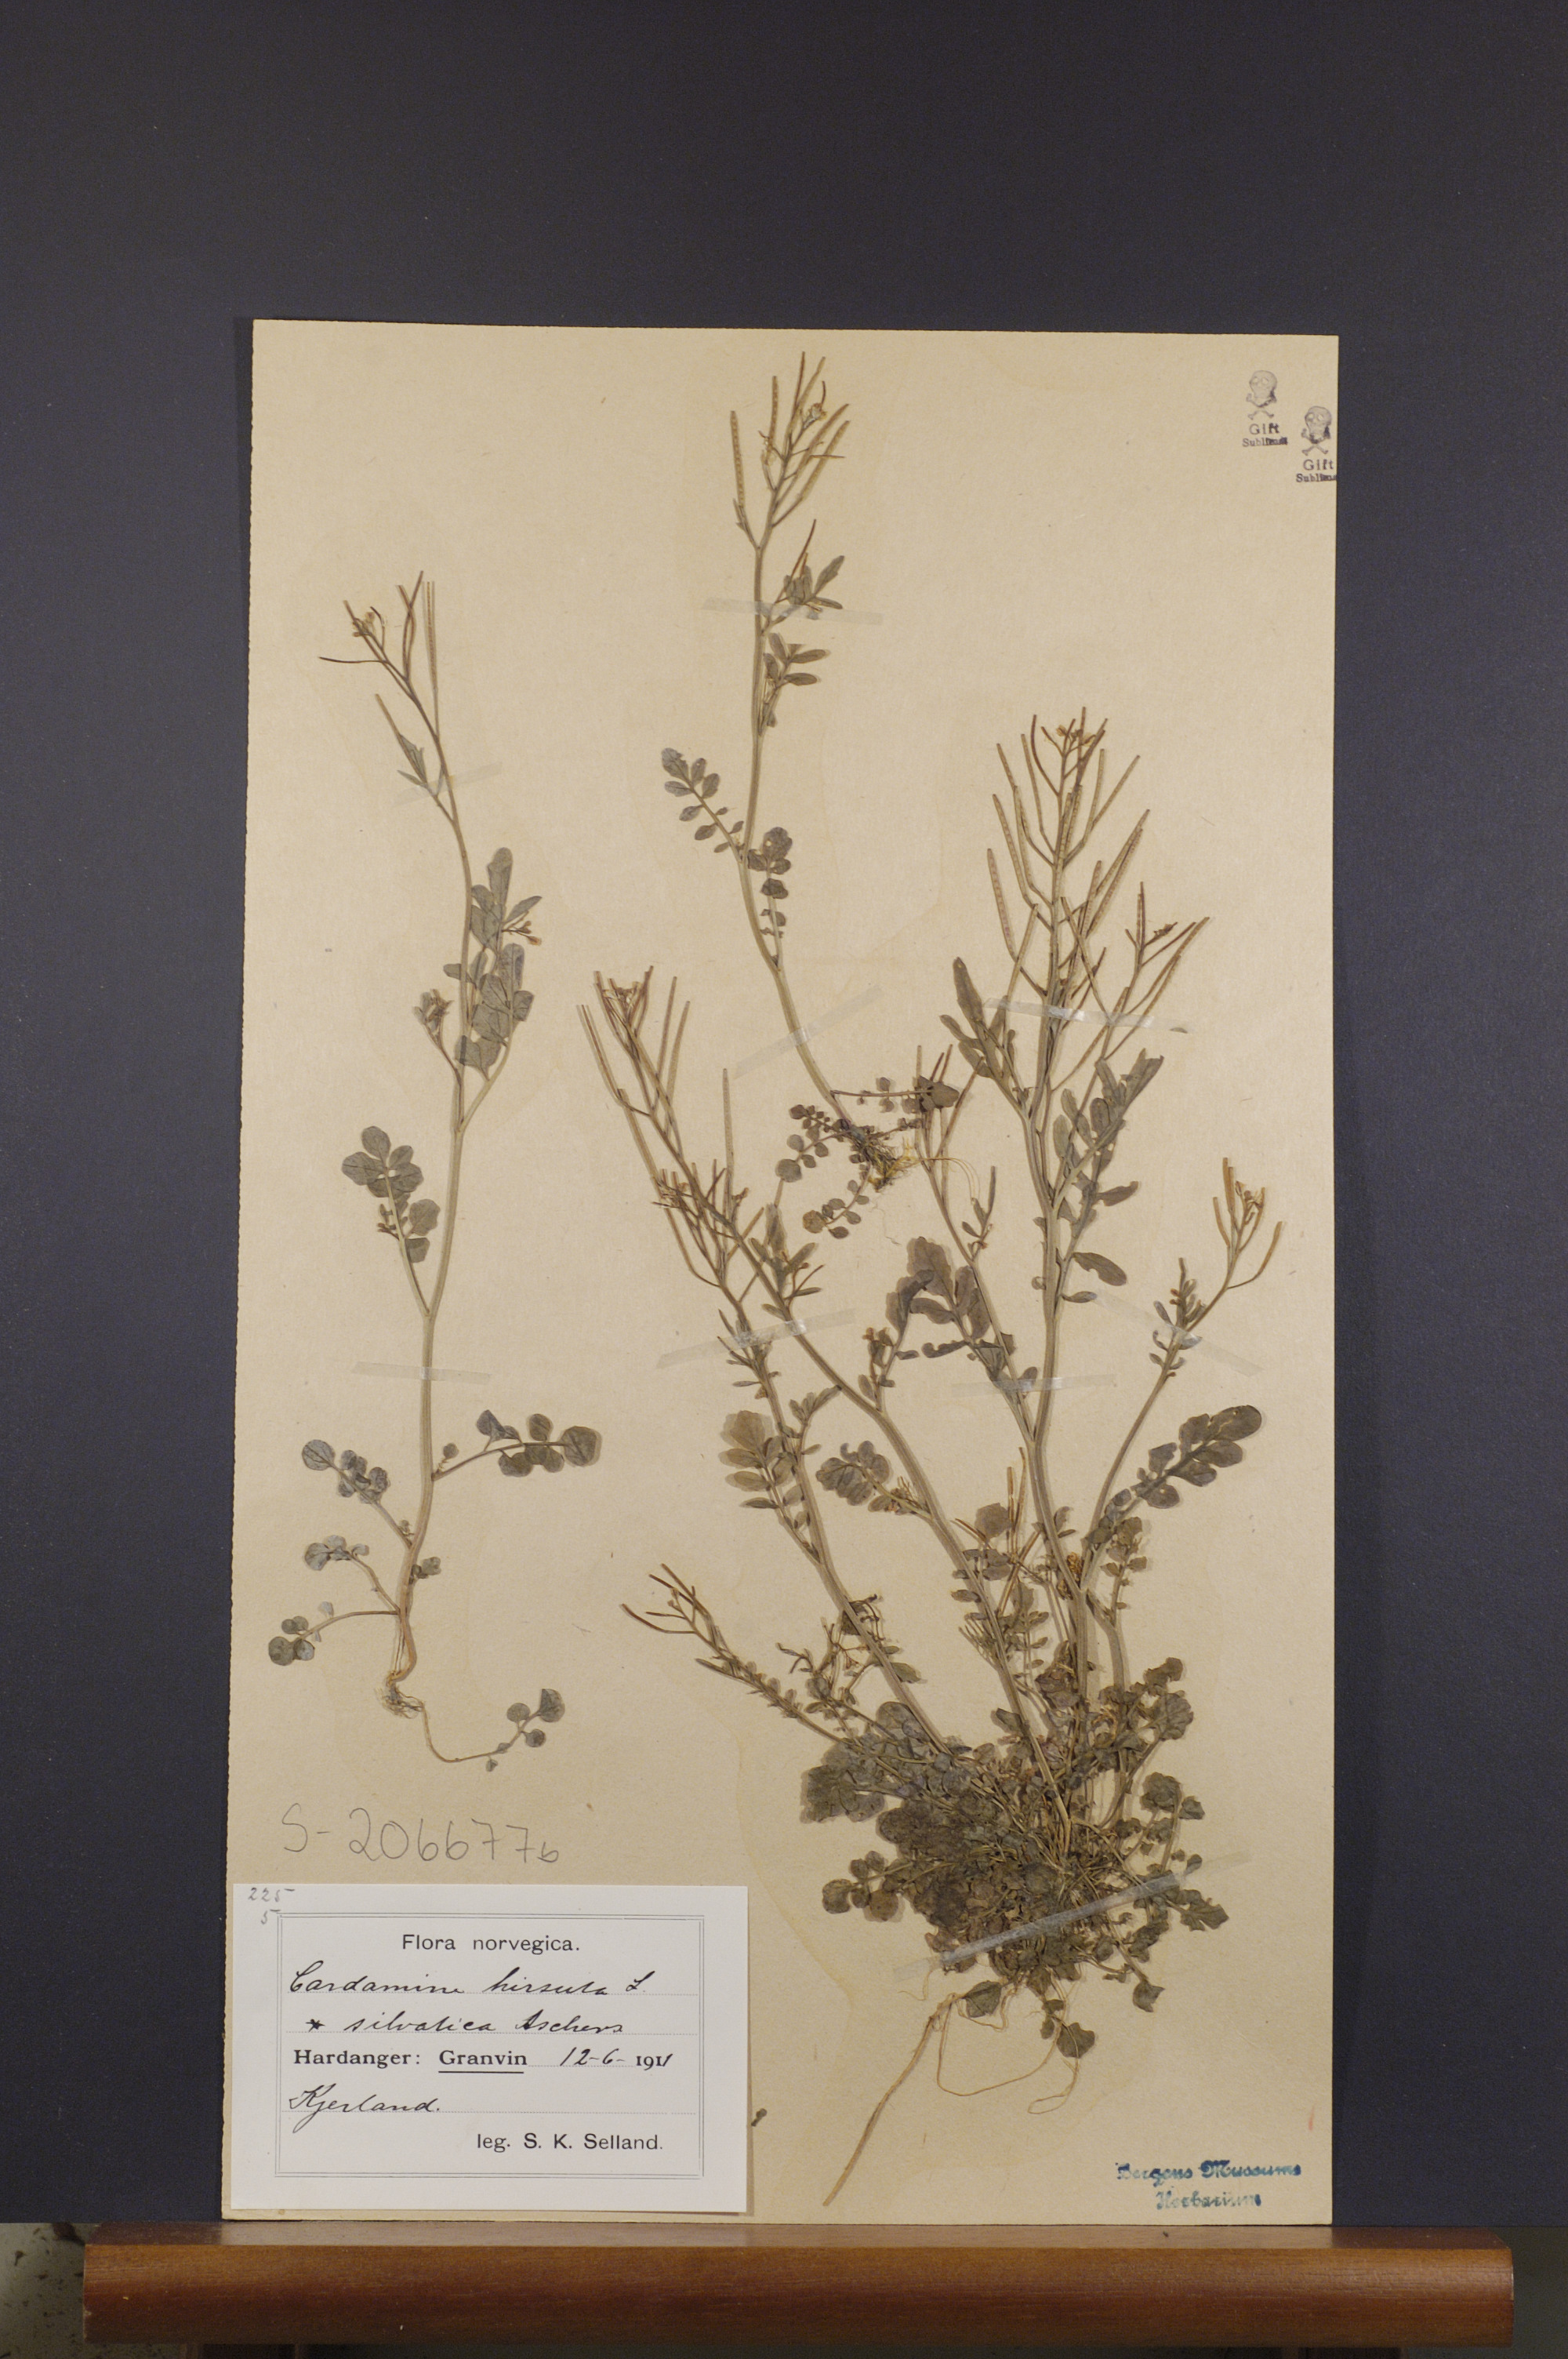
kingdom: Plantae
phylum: Tracheophyta
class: Magnoliopsida
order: Brassicales
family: Brassicaceae
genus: Cardamine
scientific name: Cardamine flexuosa
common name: Woodland bittercress
